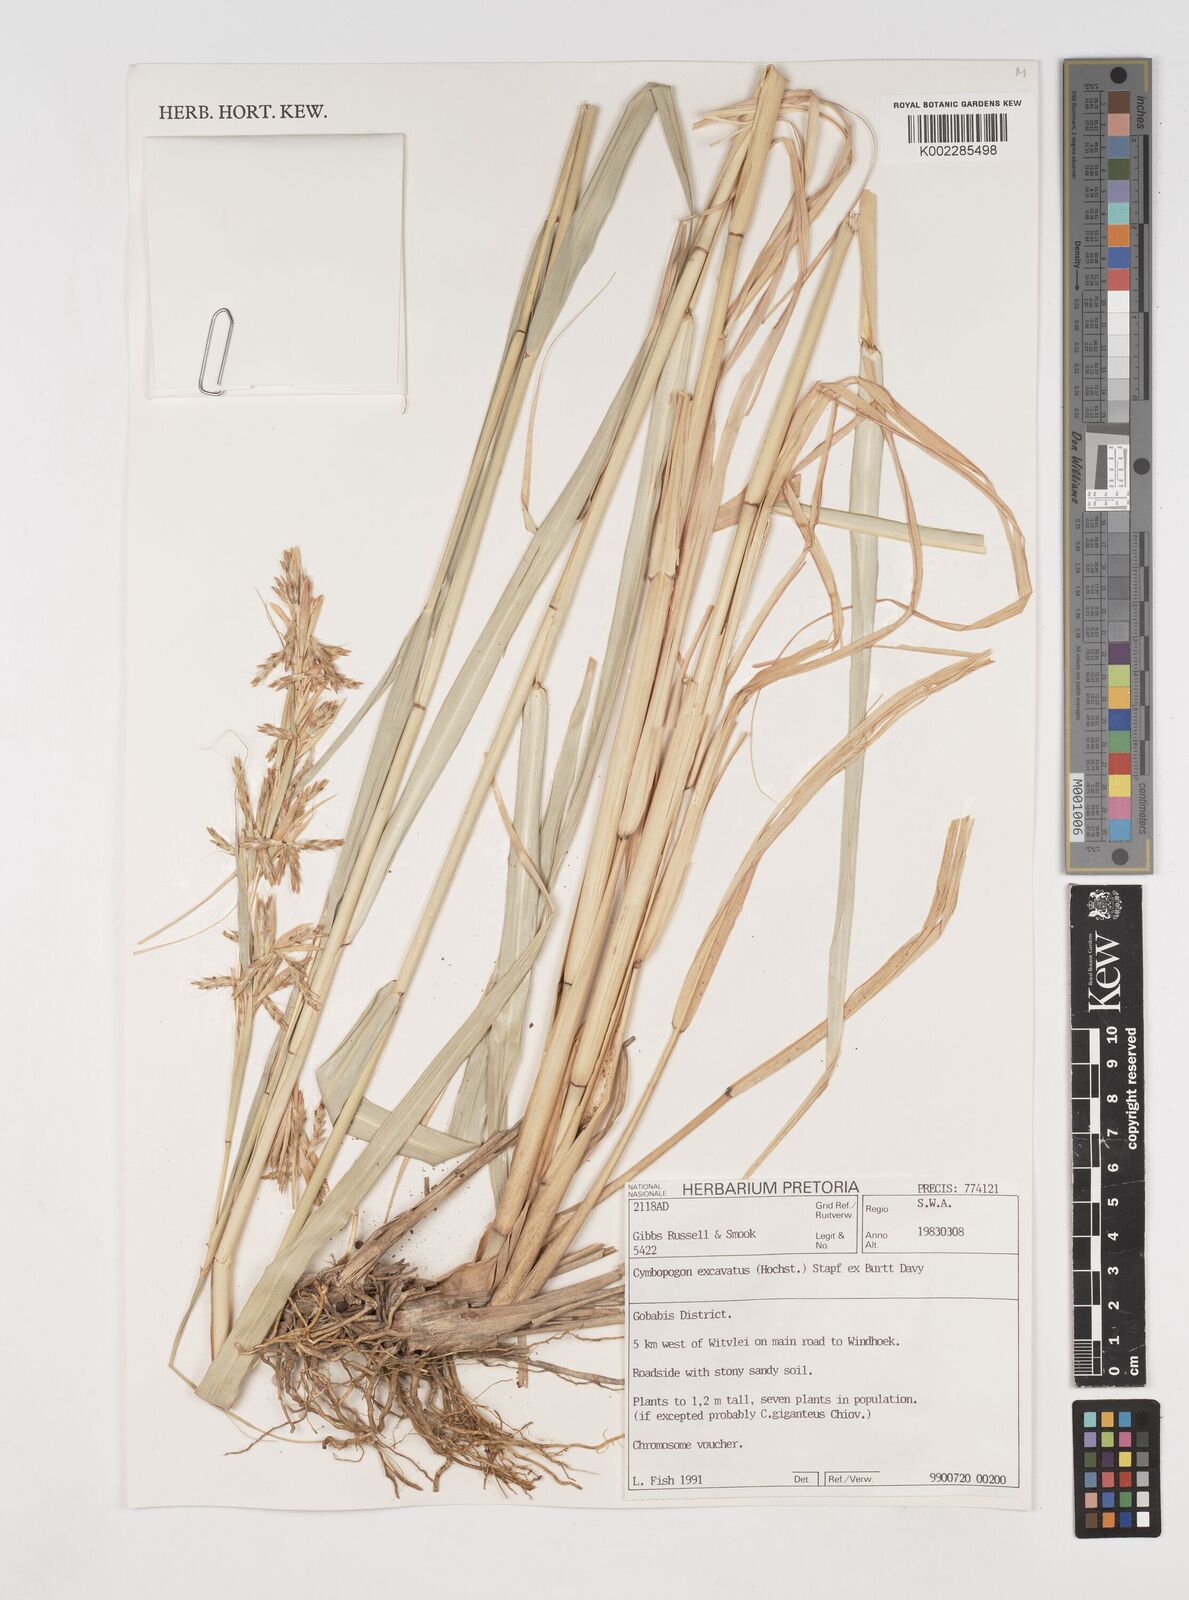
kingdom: Plantae
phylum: Tracheophyta
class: Liliopsida
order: Poales
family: Poaceae
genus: Cymbopogon
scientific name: Cymbopogon caesius
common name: Kachi grass
